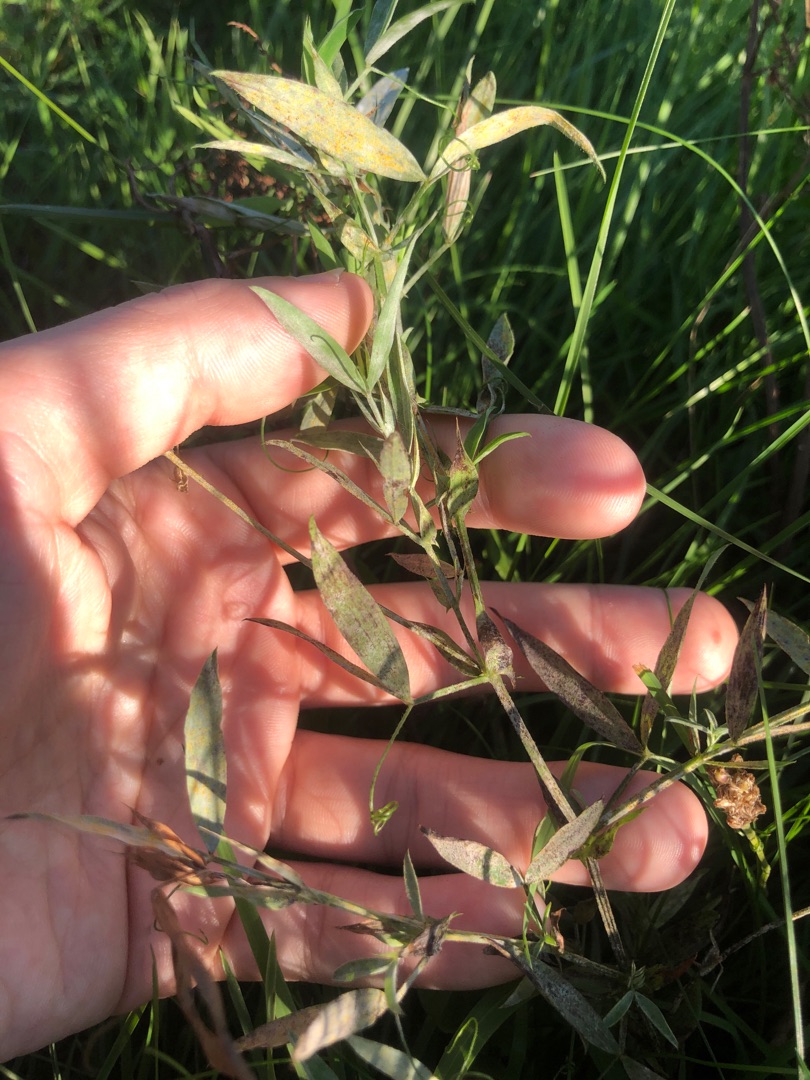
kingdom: Plantae
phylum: Tracheophyta
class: Magnoliopsida
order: Fabales
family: Fabaceae
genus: Lathyrus
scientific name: Lathyrus pratensis
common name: Gul fladbælg
